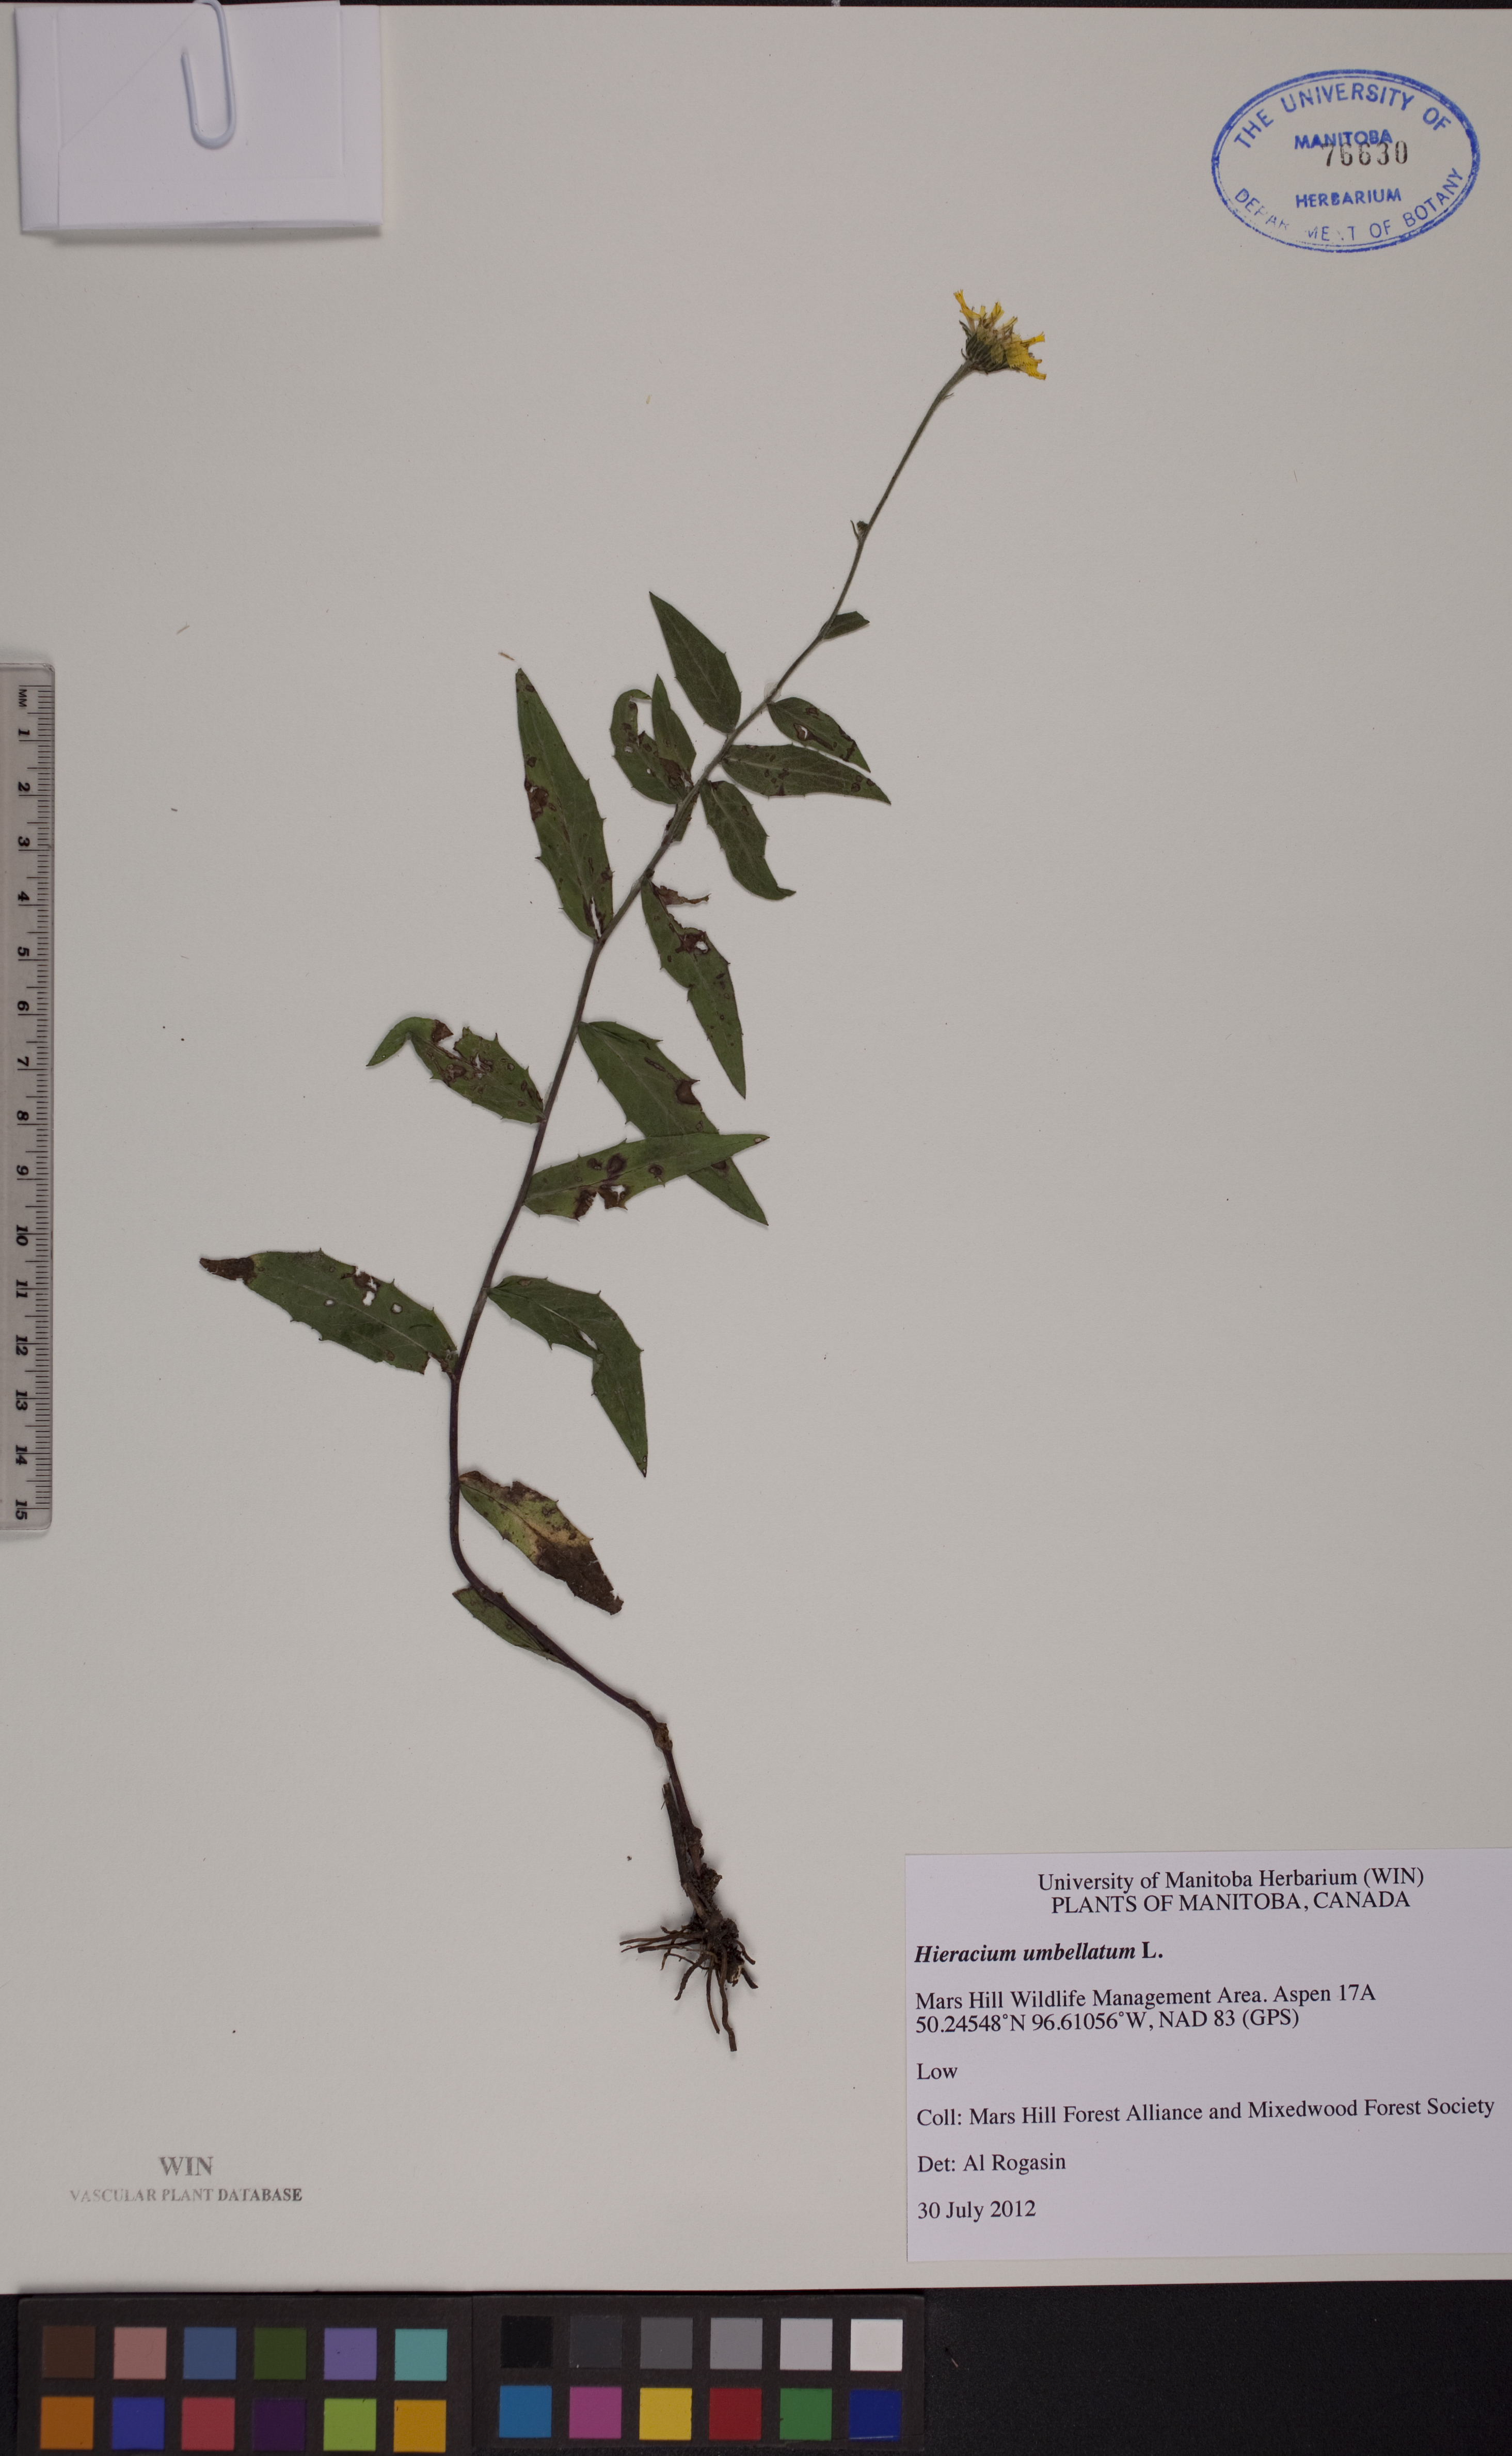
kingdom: Plantae
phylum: Tracheophyta
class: Magnoliopsida
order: Asterales
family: Asteraceae
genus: Hieracium
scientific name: Hieracium umbellatum
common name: Northern hawkweed
